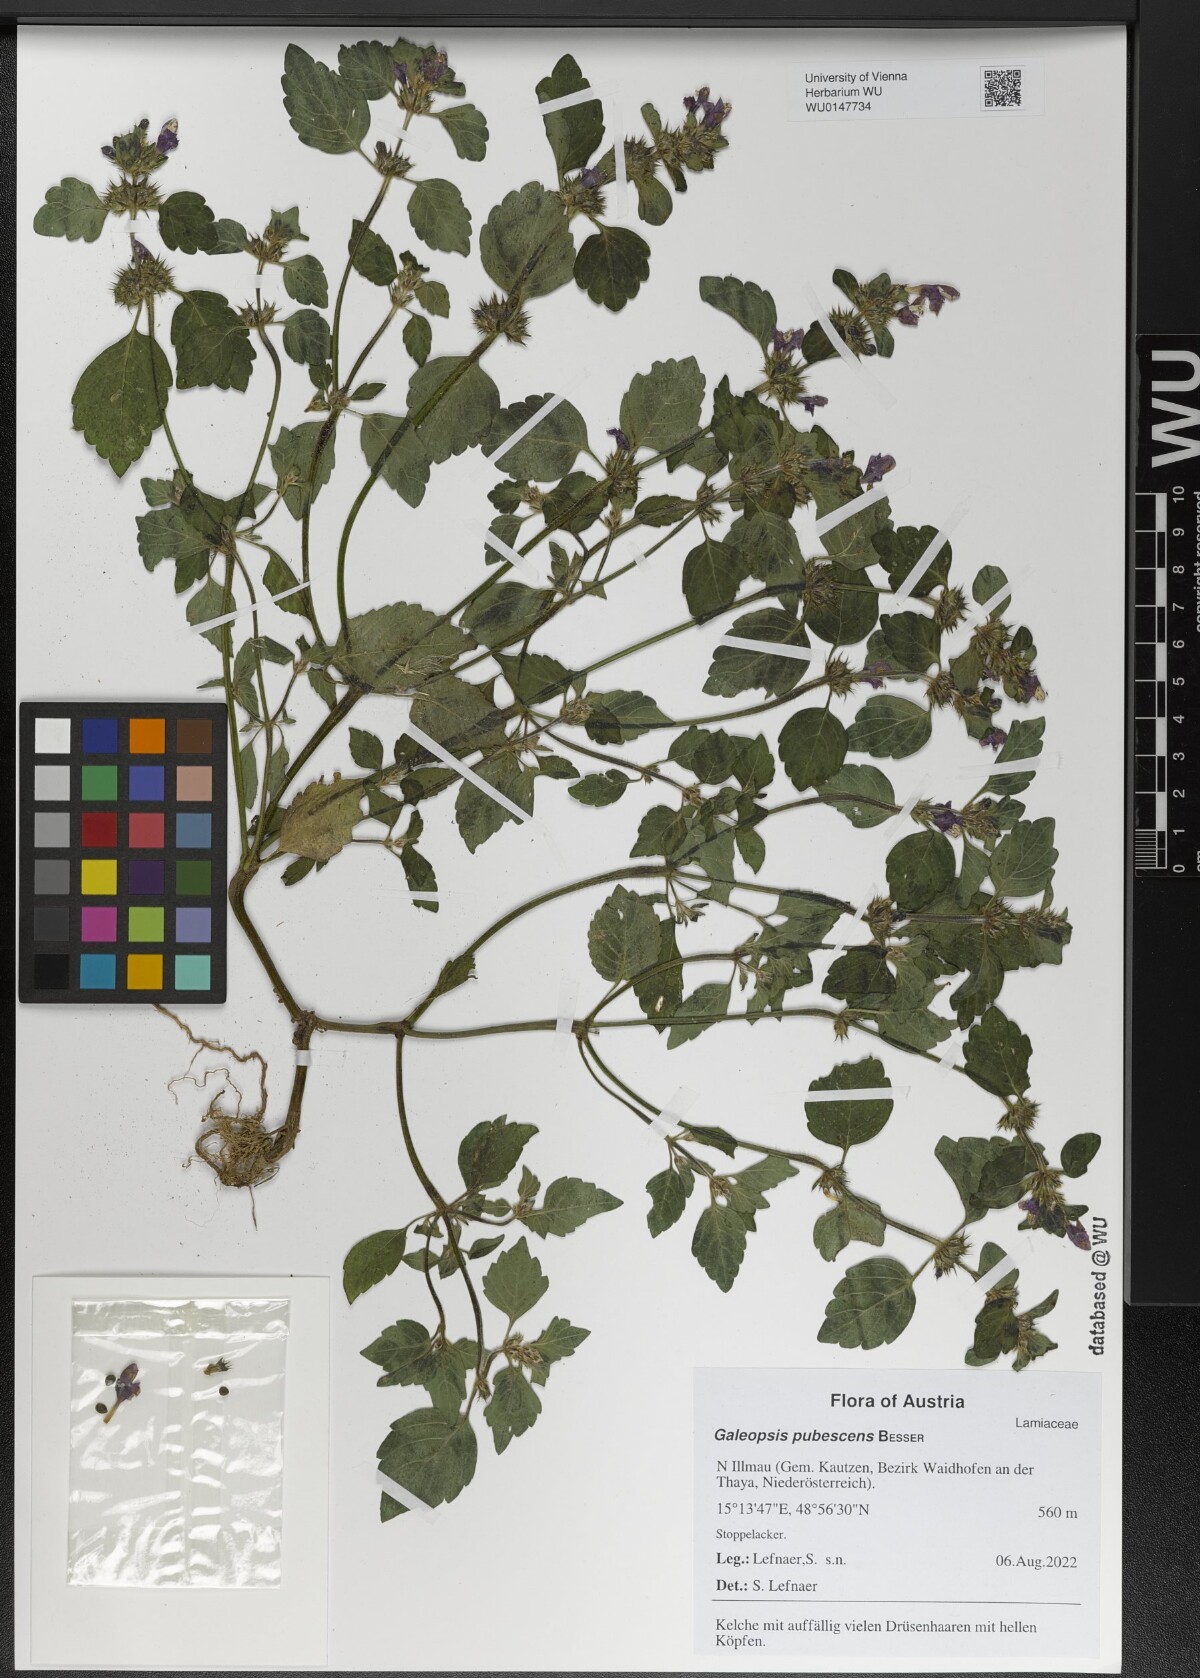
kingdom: Plantae
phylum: Tracheophyta
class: Magnoliopsida
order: Lamiales
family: Lamiaceae
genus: Galeopsis
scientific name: Galeopsis pubescens
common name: Downy hemp-nettle
